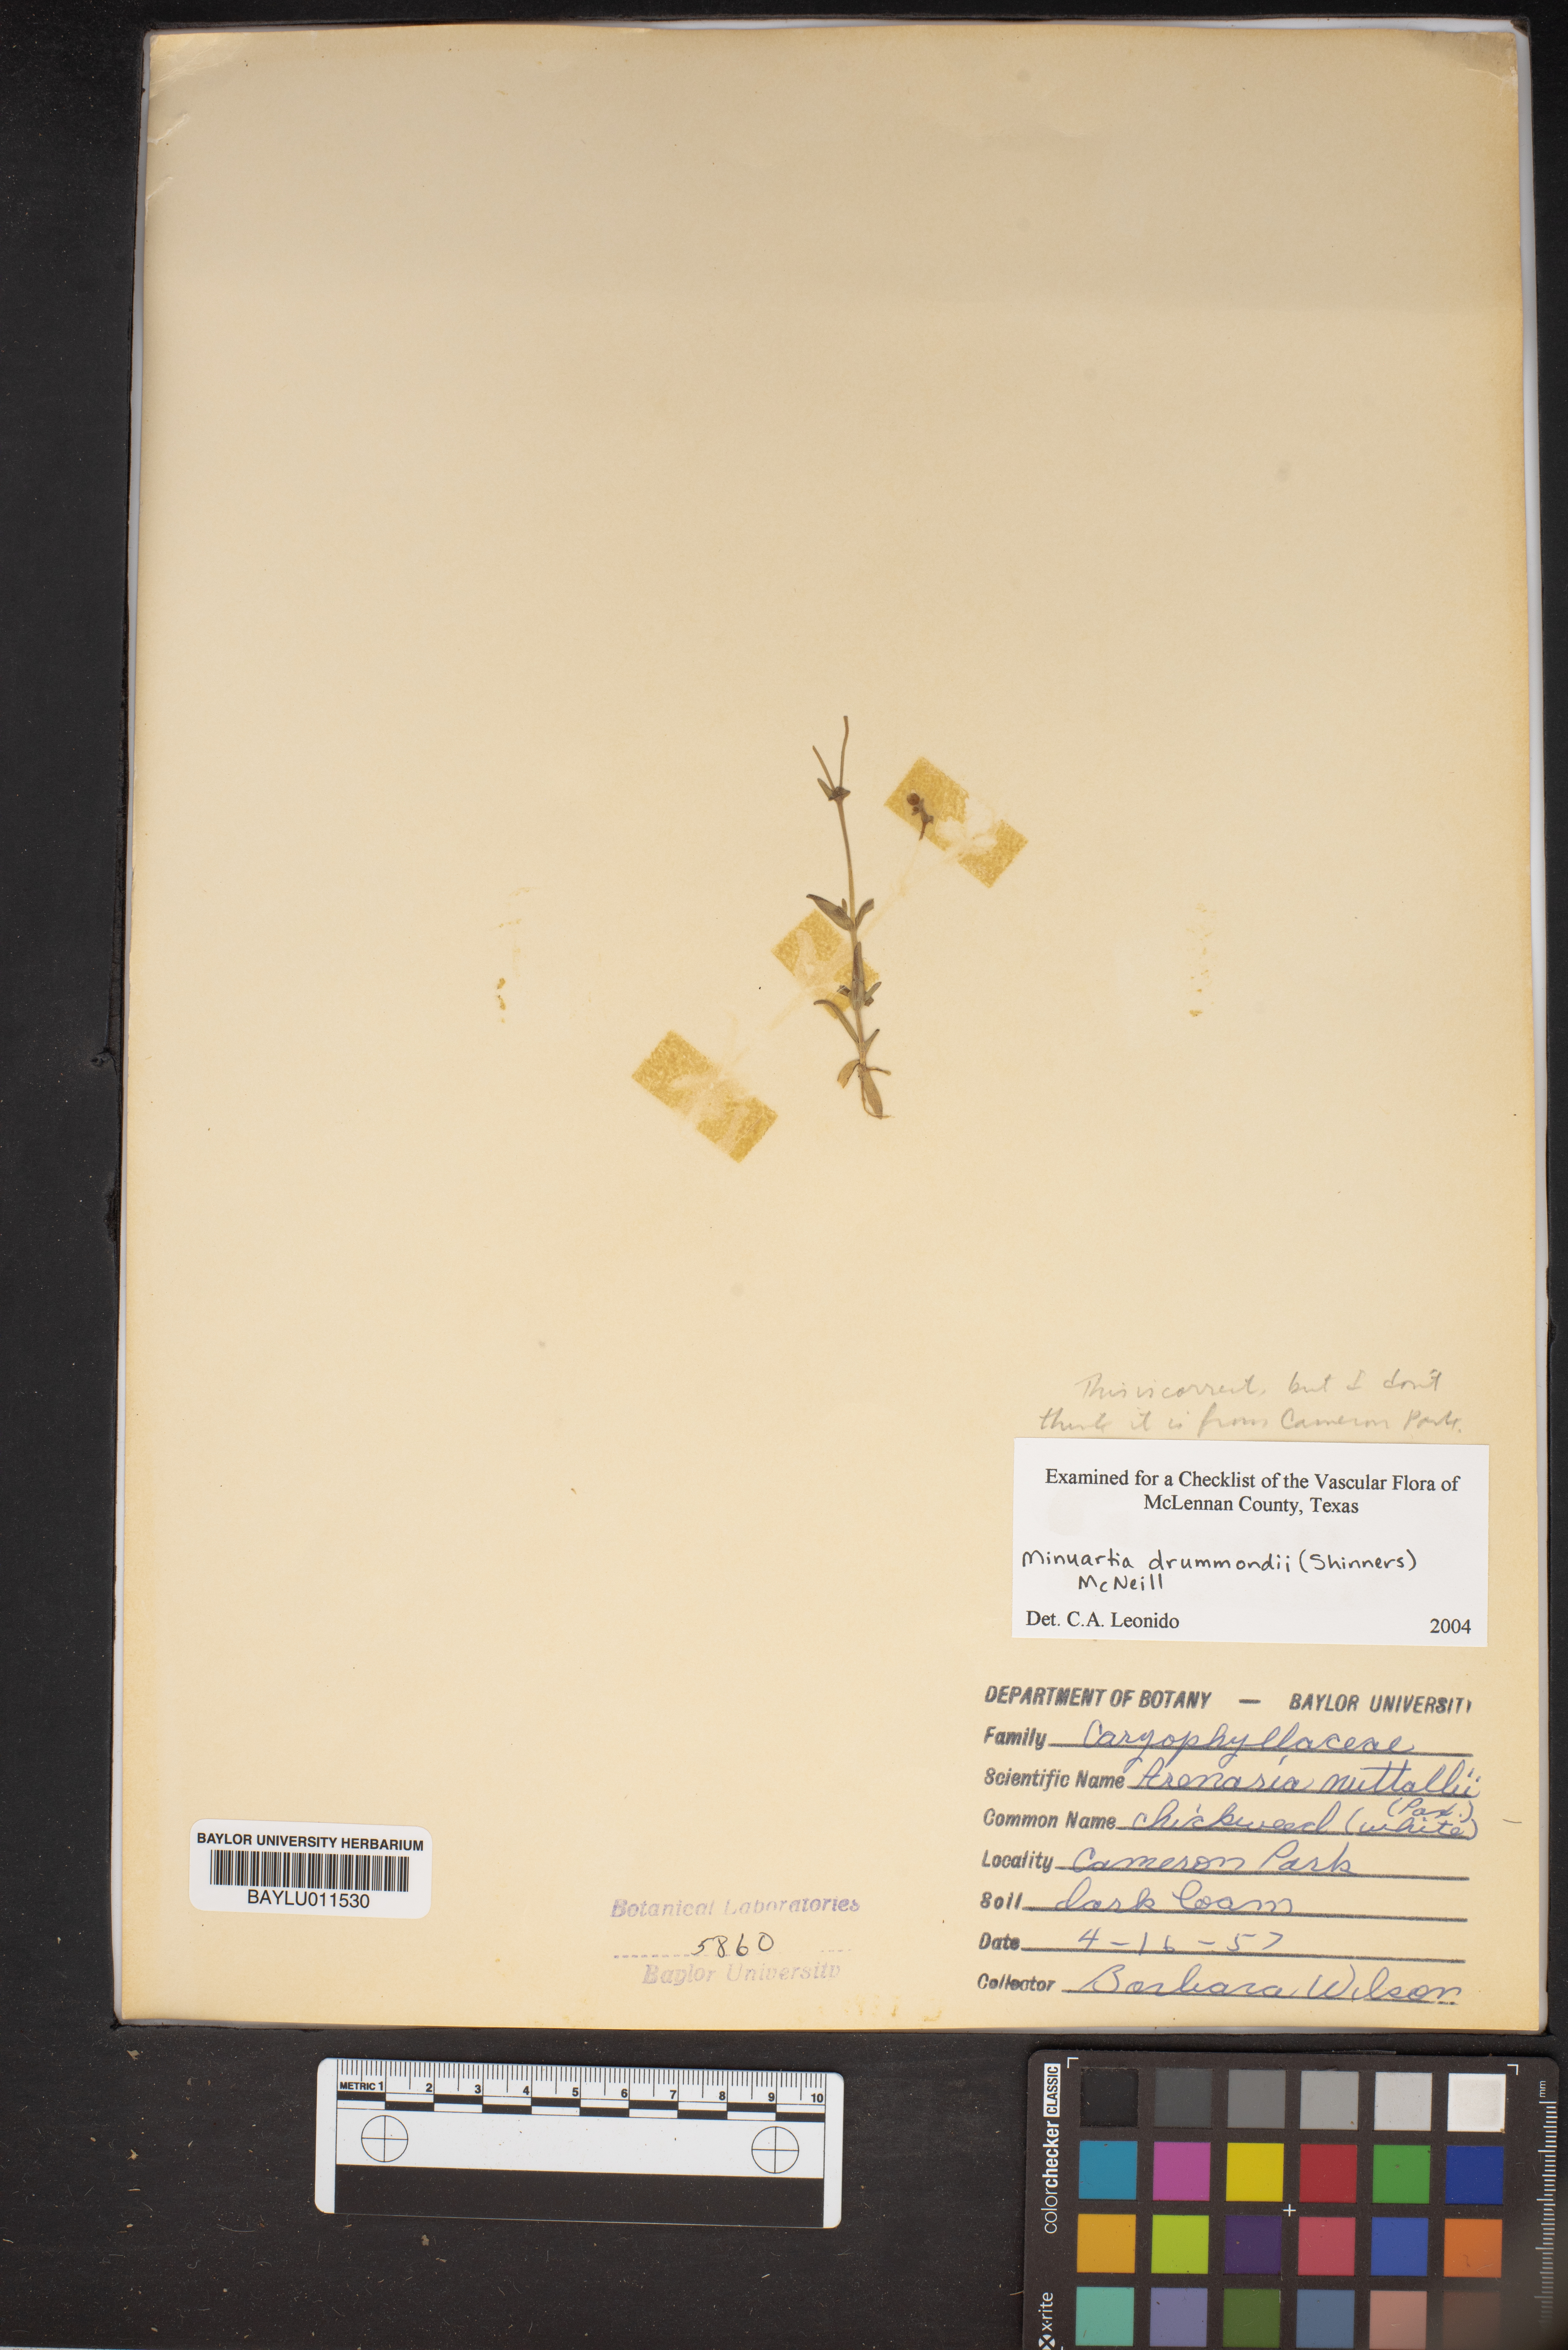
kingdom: Plantae
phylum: Tracheophyta
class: Magnoliopsida
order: Caryophyllales
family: Caryophyllaceae
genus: Geocarpon
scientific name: Geocarpon nuttallii
